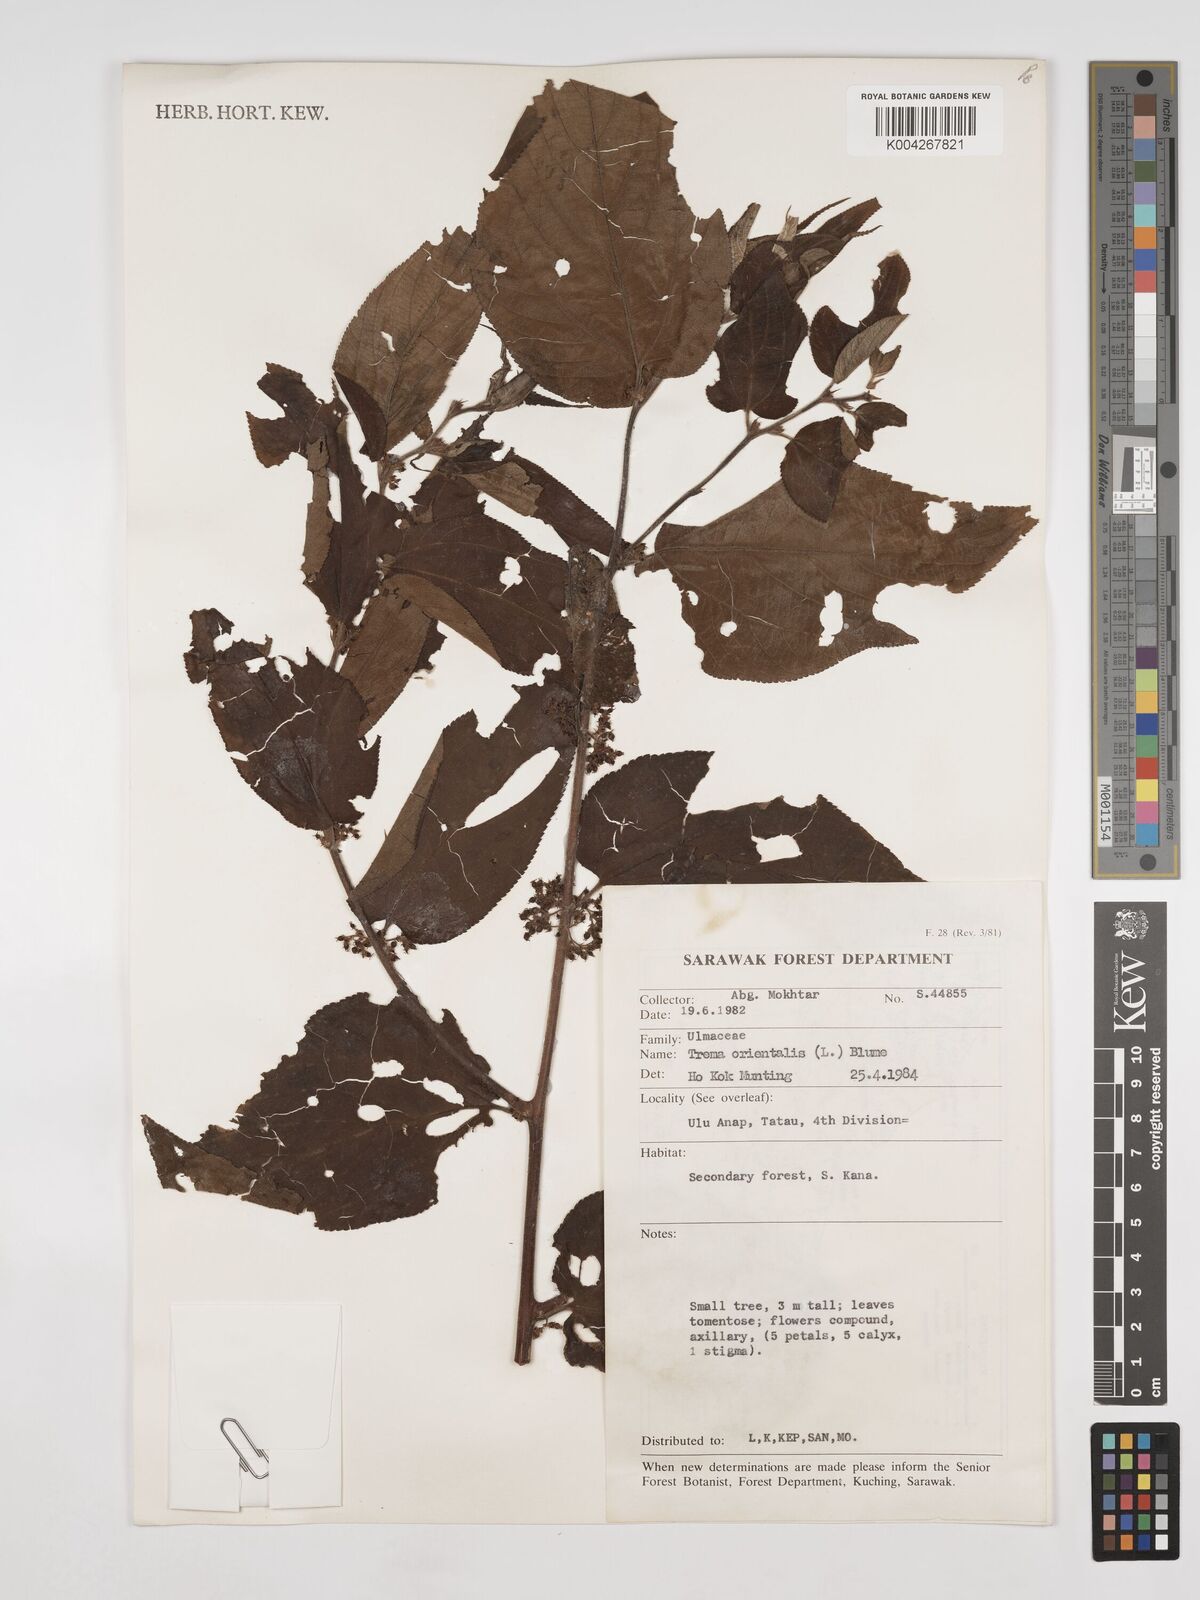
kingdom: Plantae
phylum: Tracheophyta
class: Magnoliopsida
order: Rosales
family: Cannabaceae
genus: Trema
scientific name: Trema orientale
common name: Indian charcoal tree
